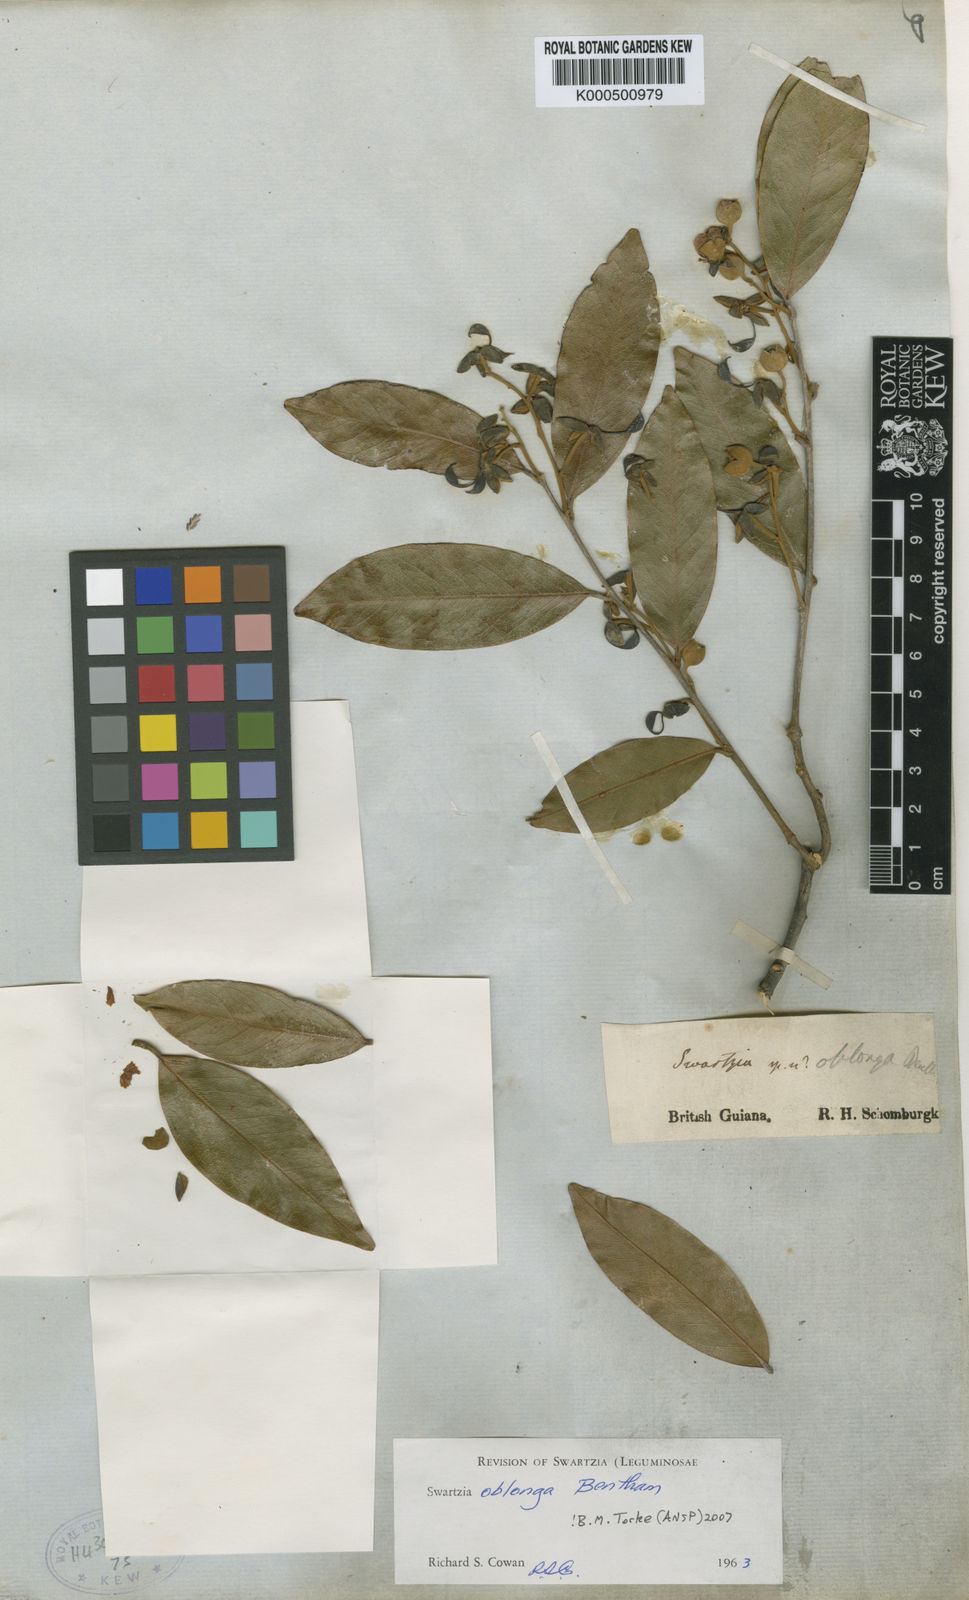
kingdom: Plantae
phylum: Tracheophyta
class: Magnoliopsida
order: Fabales
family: Fabaceae
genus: Swartzia
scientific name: Swartzia oblonga
